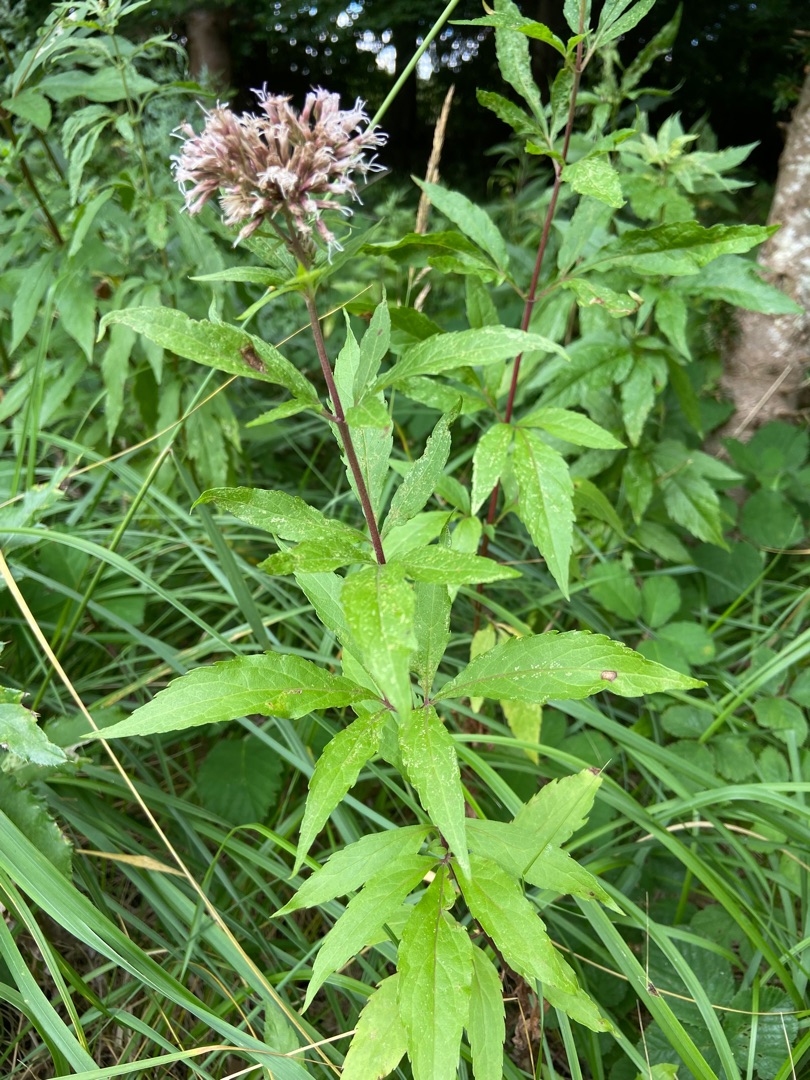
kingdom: Plantae
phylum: Tracheophyta
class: Magnoliopsida
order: Asterales
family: Asteraceae
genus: Eupatorium
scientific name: Eupatorium cannabinum
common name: Hjortetrøst
